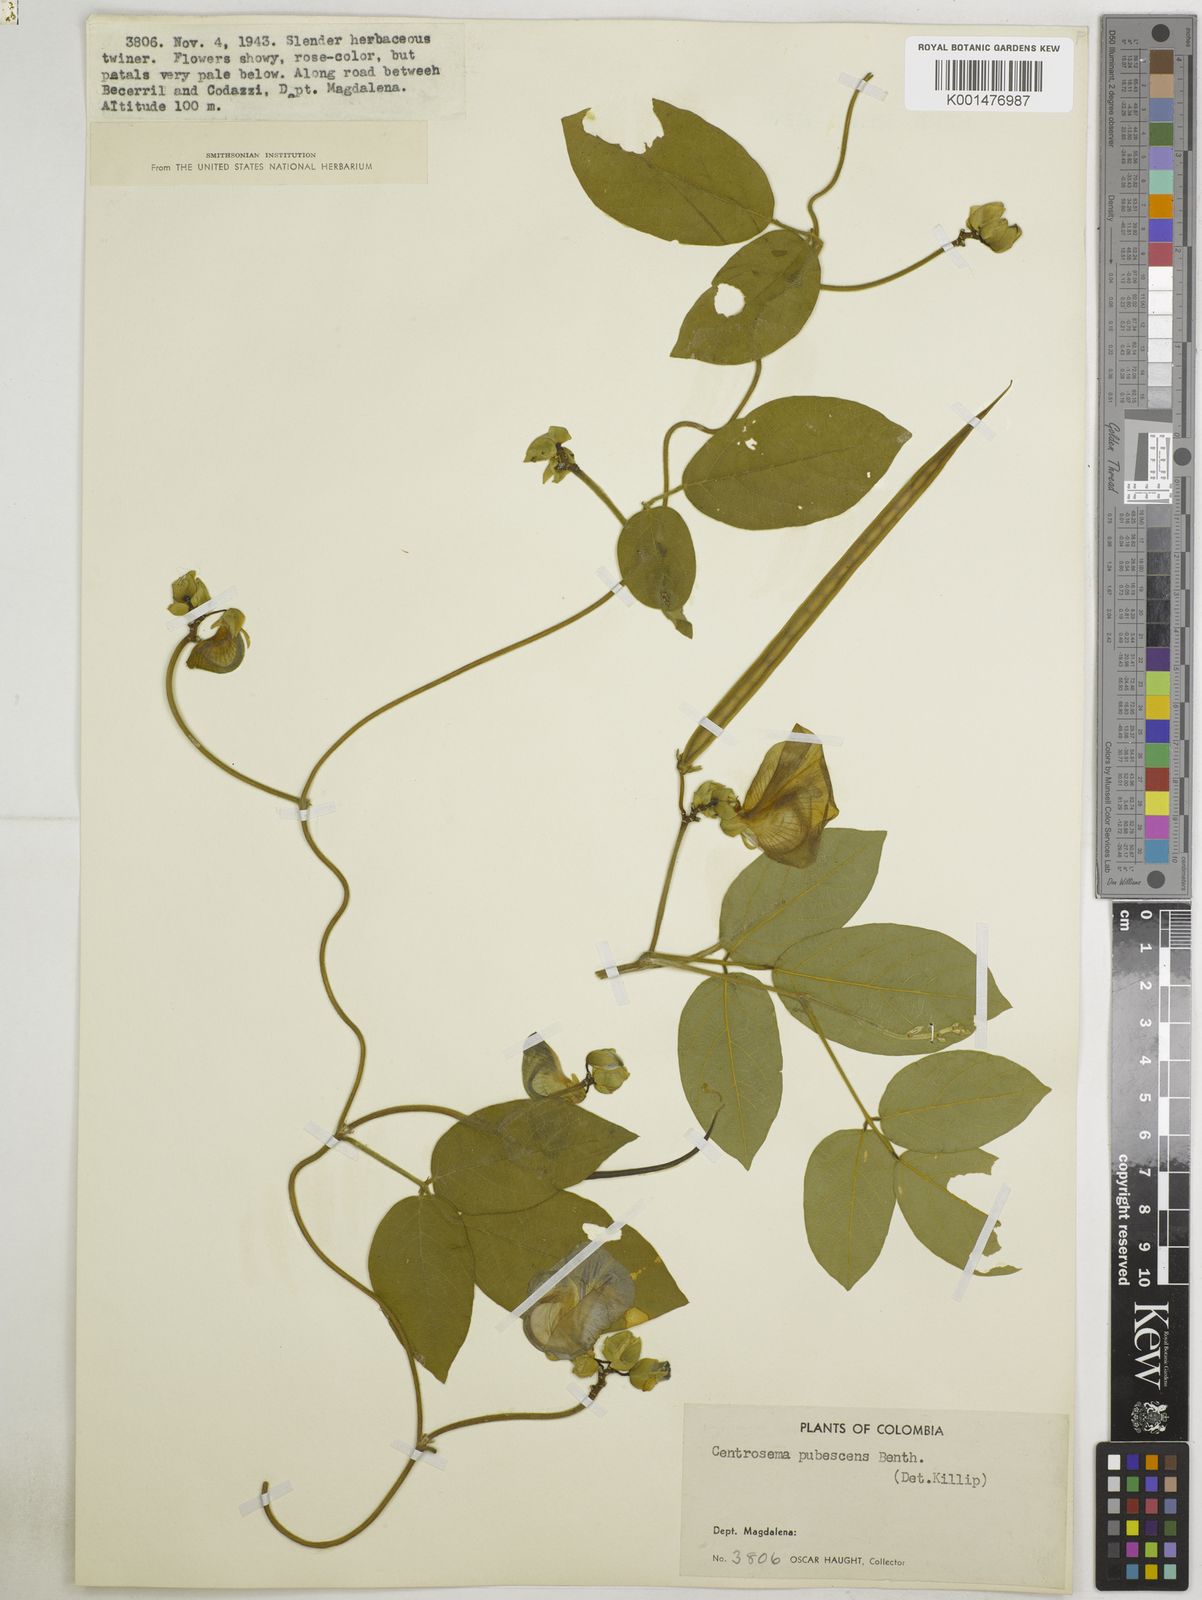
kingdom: Plantae
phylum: Tracheophyta
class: Magnoliopsida
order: Fabales
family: Fabaceae
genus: Centrosema
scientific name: Centrosema pubescens
